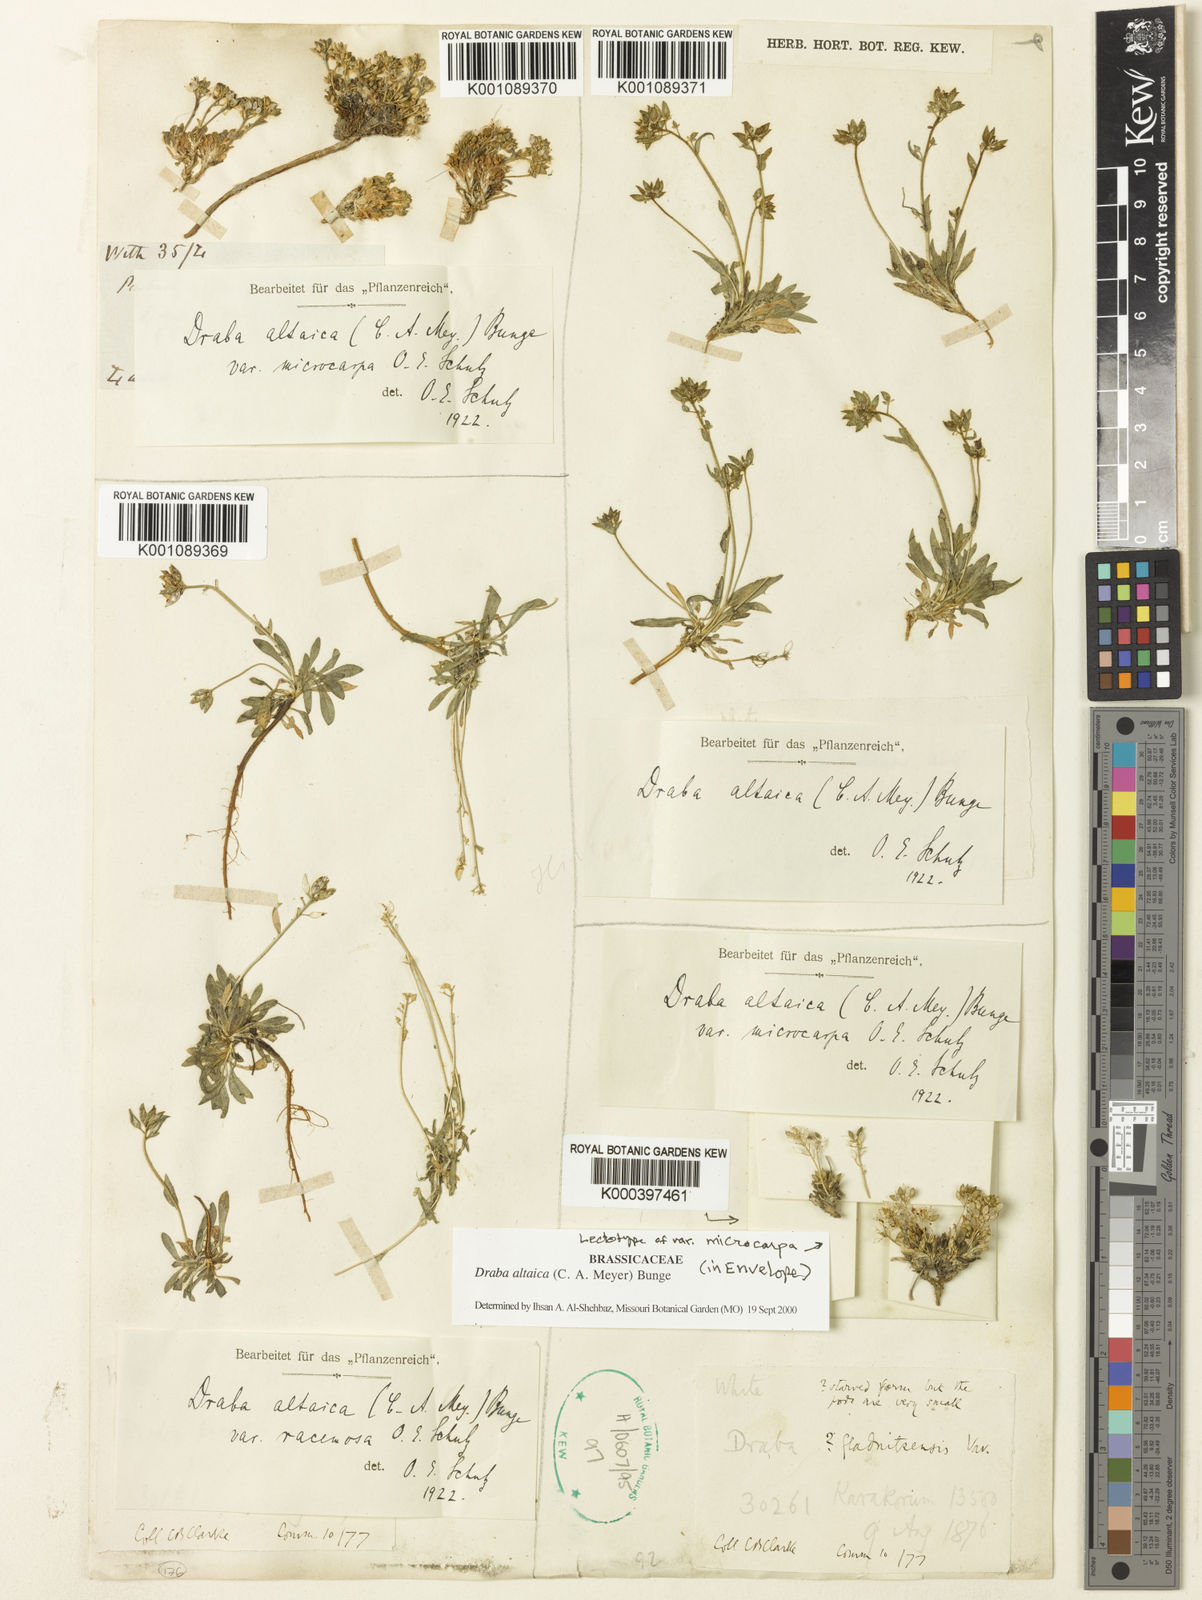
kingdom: Plantae
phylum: Tracheophyta
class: Magnoliopsida
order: Brassicales
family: Brassicaceae
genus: Draba
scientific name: Draba altaica
